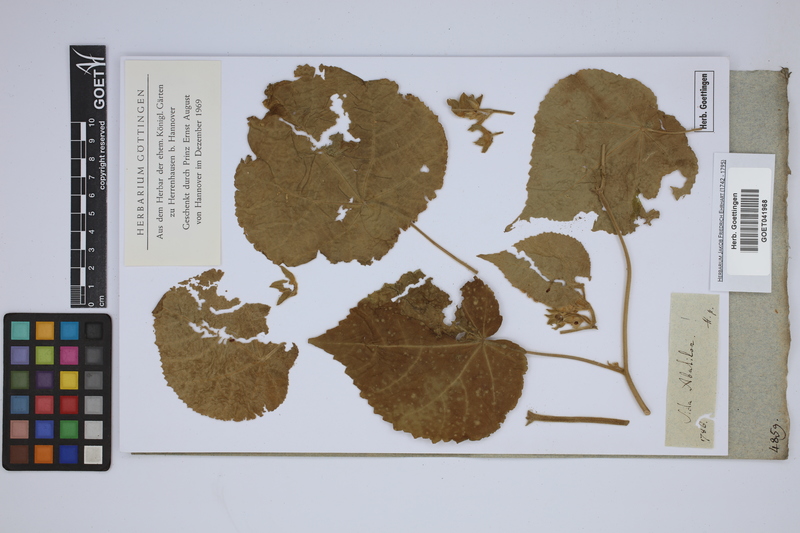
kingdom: Plantae
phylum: Tracheophyta
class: Magnoliopsida
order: Malvales
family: Malvaceae
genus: Abutilon
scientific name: Abutilon theophrasti
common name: Velvetleaf
